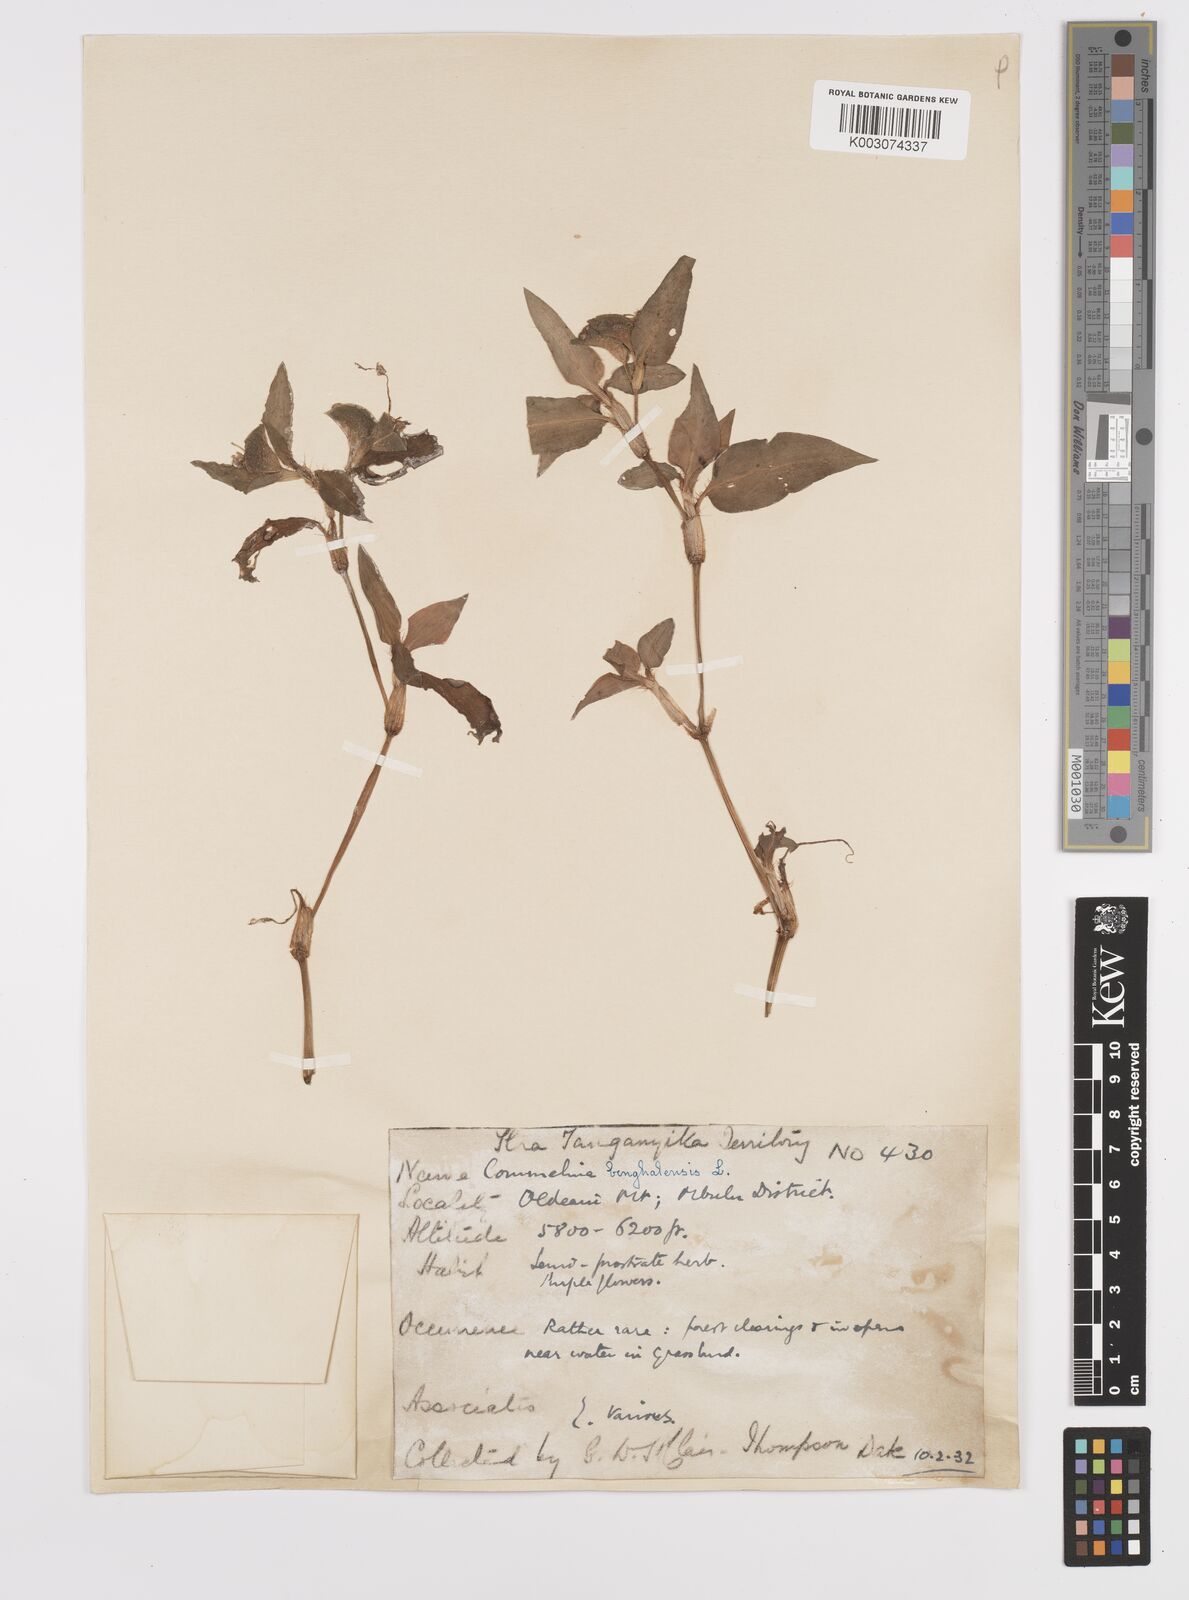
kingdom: Plantae
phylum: Tracheophyta
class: Liliopsida
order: Commelinales
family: Commelinaceae
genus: Commelina
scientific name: Commelina benghalensis
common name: Jio
